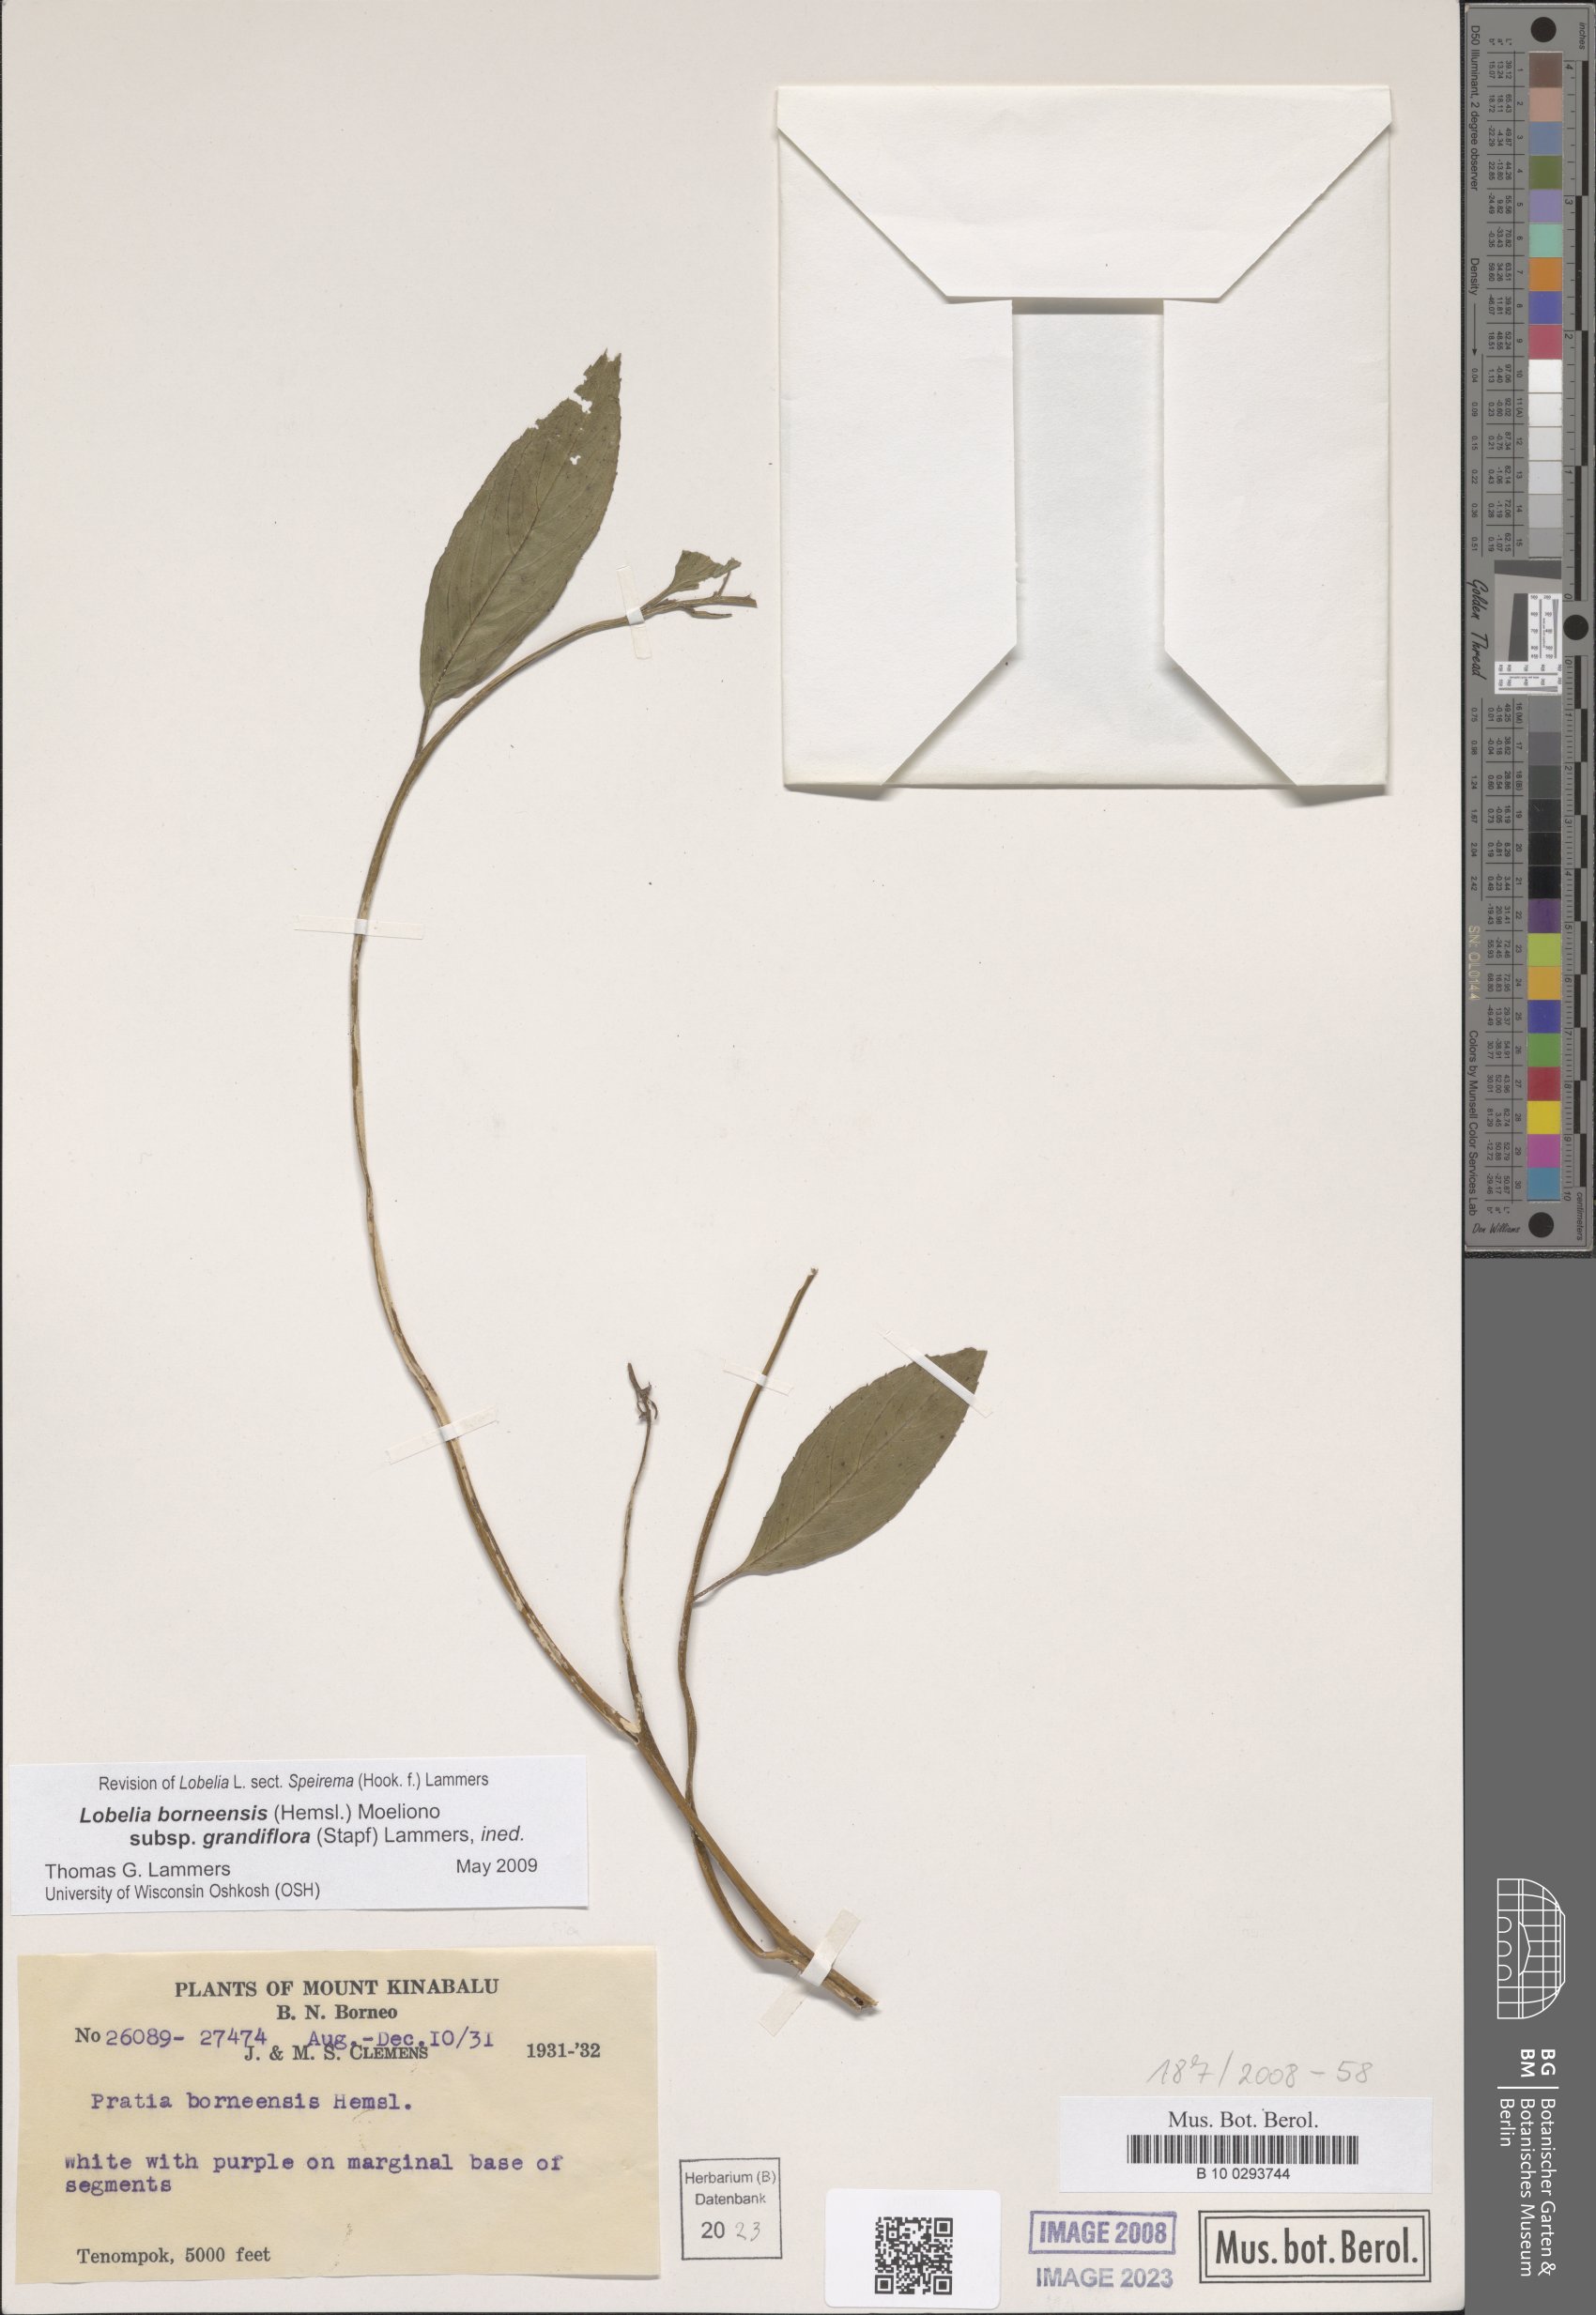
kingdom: Plantae
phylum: Tracheophyta
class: Magnoliopsida
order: Asterales
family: Campanulaceae
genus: Lobelia
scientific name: Lobelia borneensis
